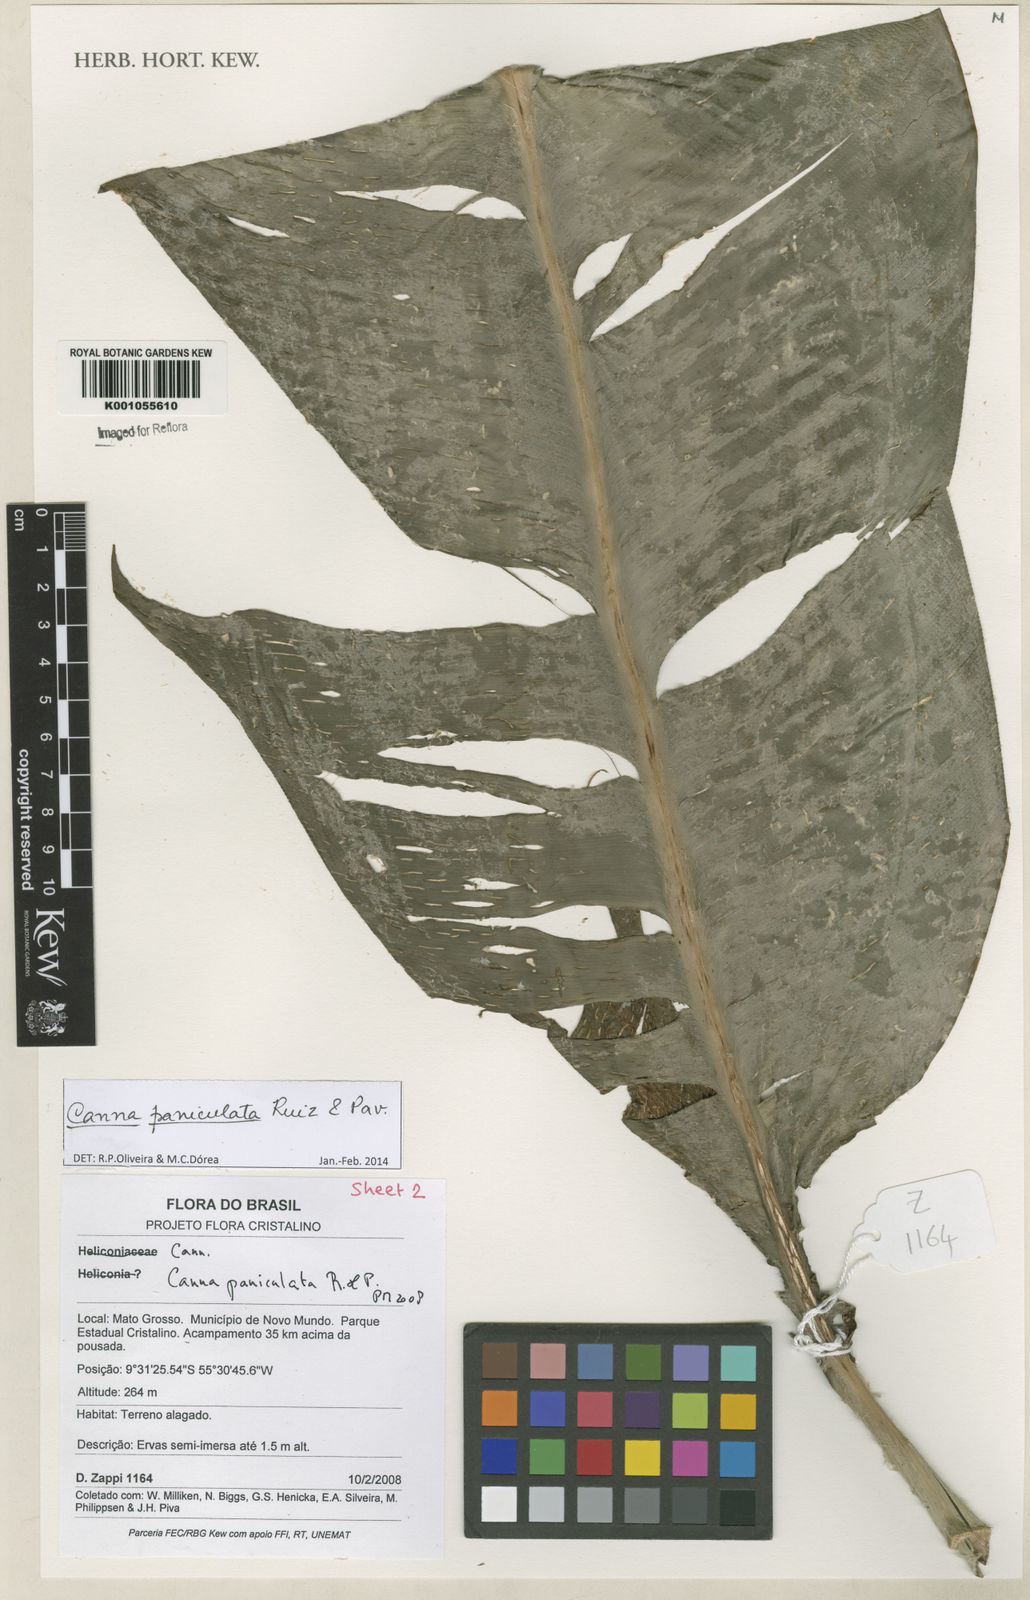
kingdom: Plantae
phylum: Tracheophyta
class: Liliopsida
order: Zingiberales
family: Cannaceae
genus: Canna
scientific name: Canna paniculata
